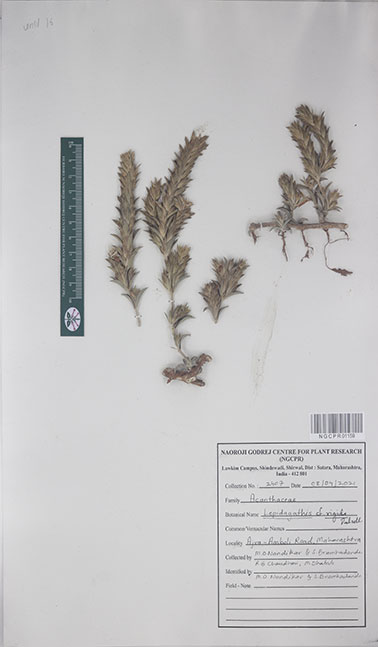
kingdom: Plantae
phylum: Tracheophyta
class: Magnoliopsida
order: Lamiales
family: Acanthaceae
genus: Lepidagathis
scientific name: Lepidagathis rigida
